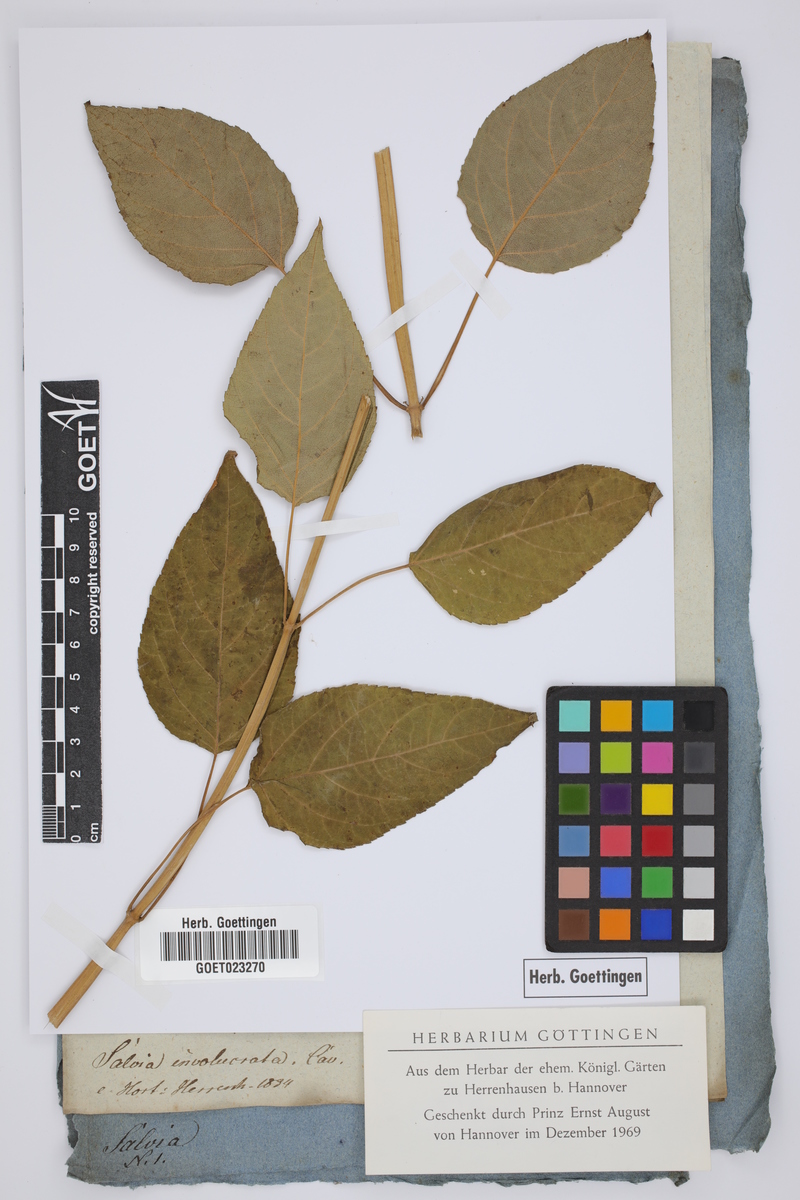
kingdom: Plantae
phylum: Tracheophyta
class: Magnoliopsida
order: Lamiales
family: Lamiaceae
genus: Salvia
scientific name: Salvia involucrata
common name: Roseleaf sage
